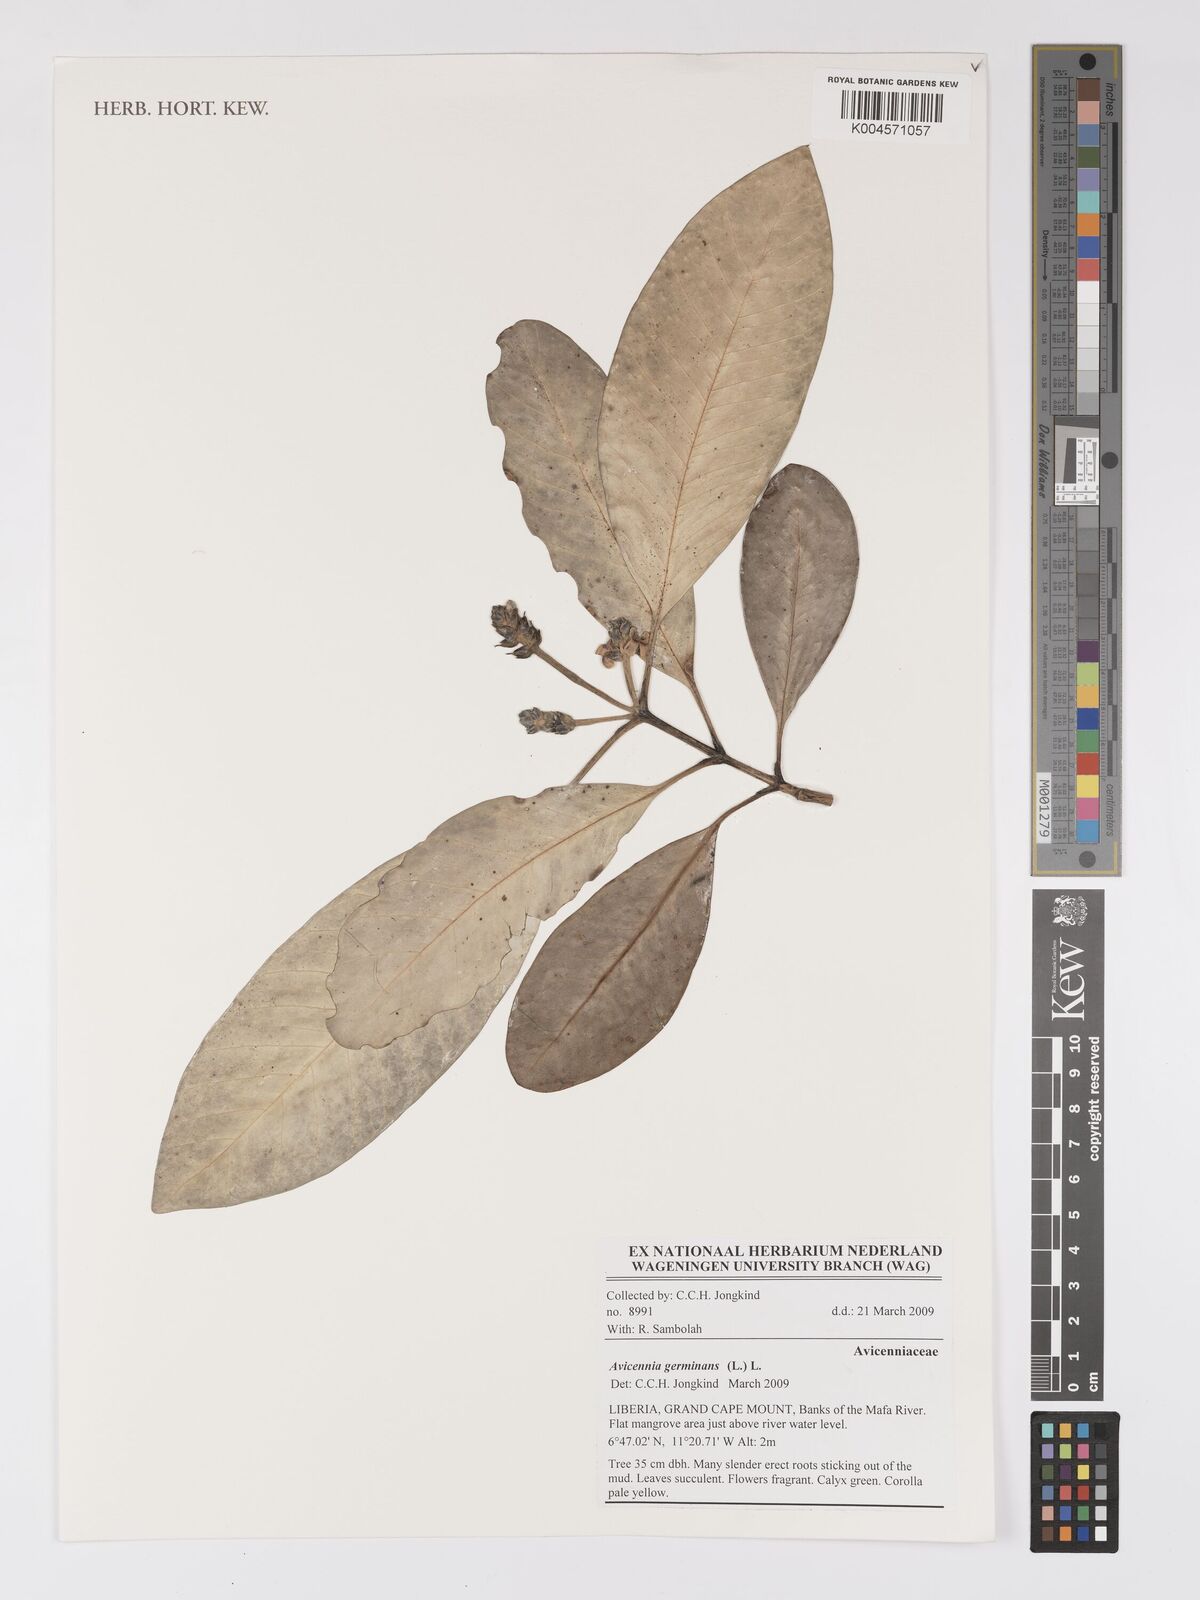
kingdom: Plantae
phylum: Tracheophyta
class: Magnoliopsida
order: Lamiales
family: Acanthaceae
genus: Avicennia
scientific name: Avicennia germinans
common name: Black mangrove
